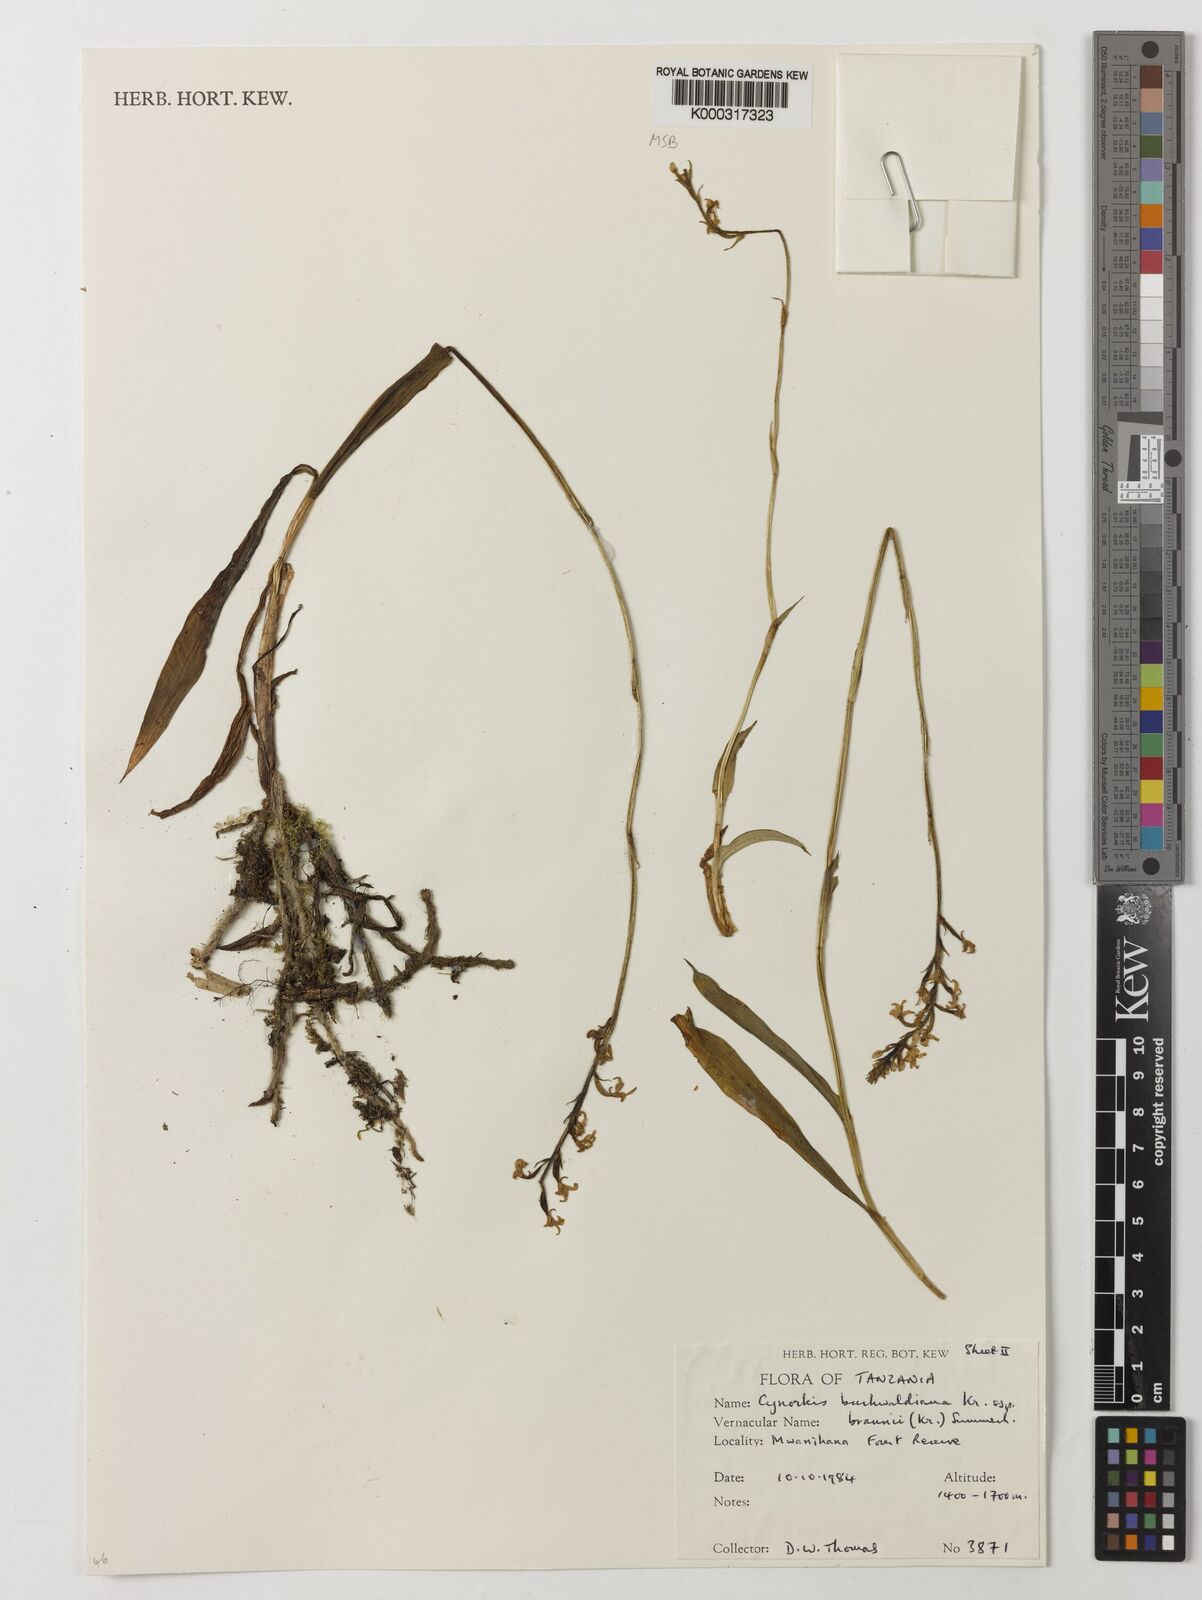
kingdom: Plantae
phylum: Tracheophyta
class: Liliopsida
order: Asparagales
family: Orchidaceae
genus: Cynorkis
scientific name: Cynorkis buchwaldiana
